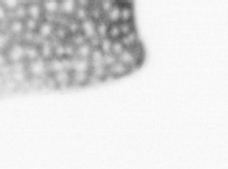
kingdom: Animalia
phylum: Chordata
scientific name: Chordata
